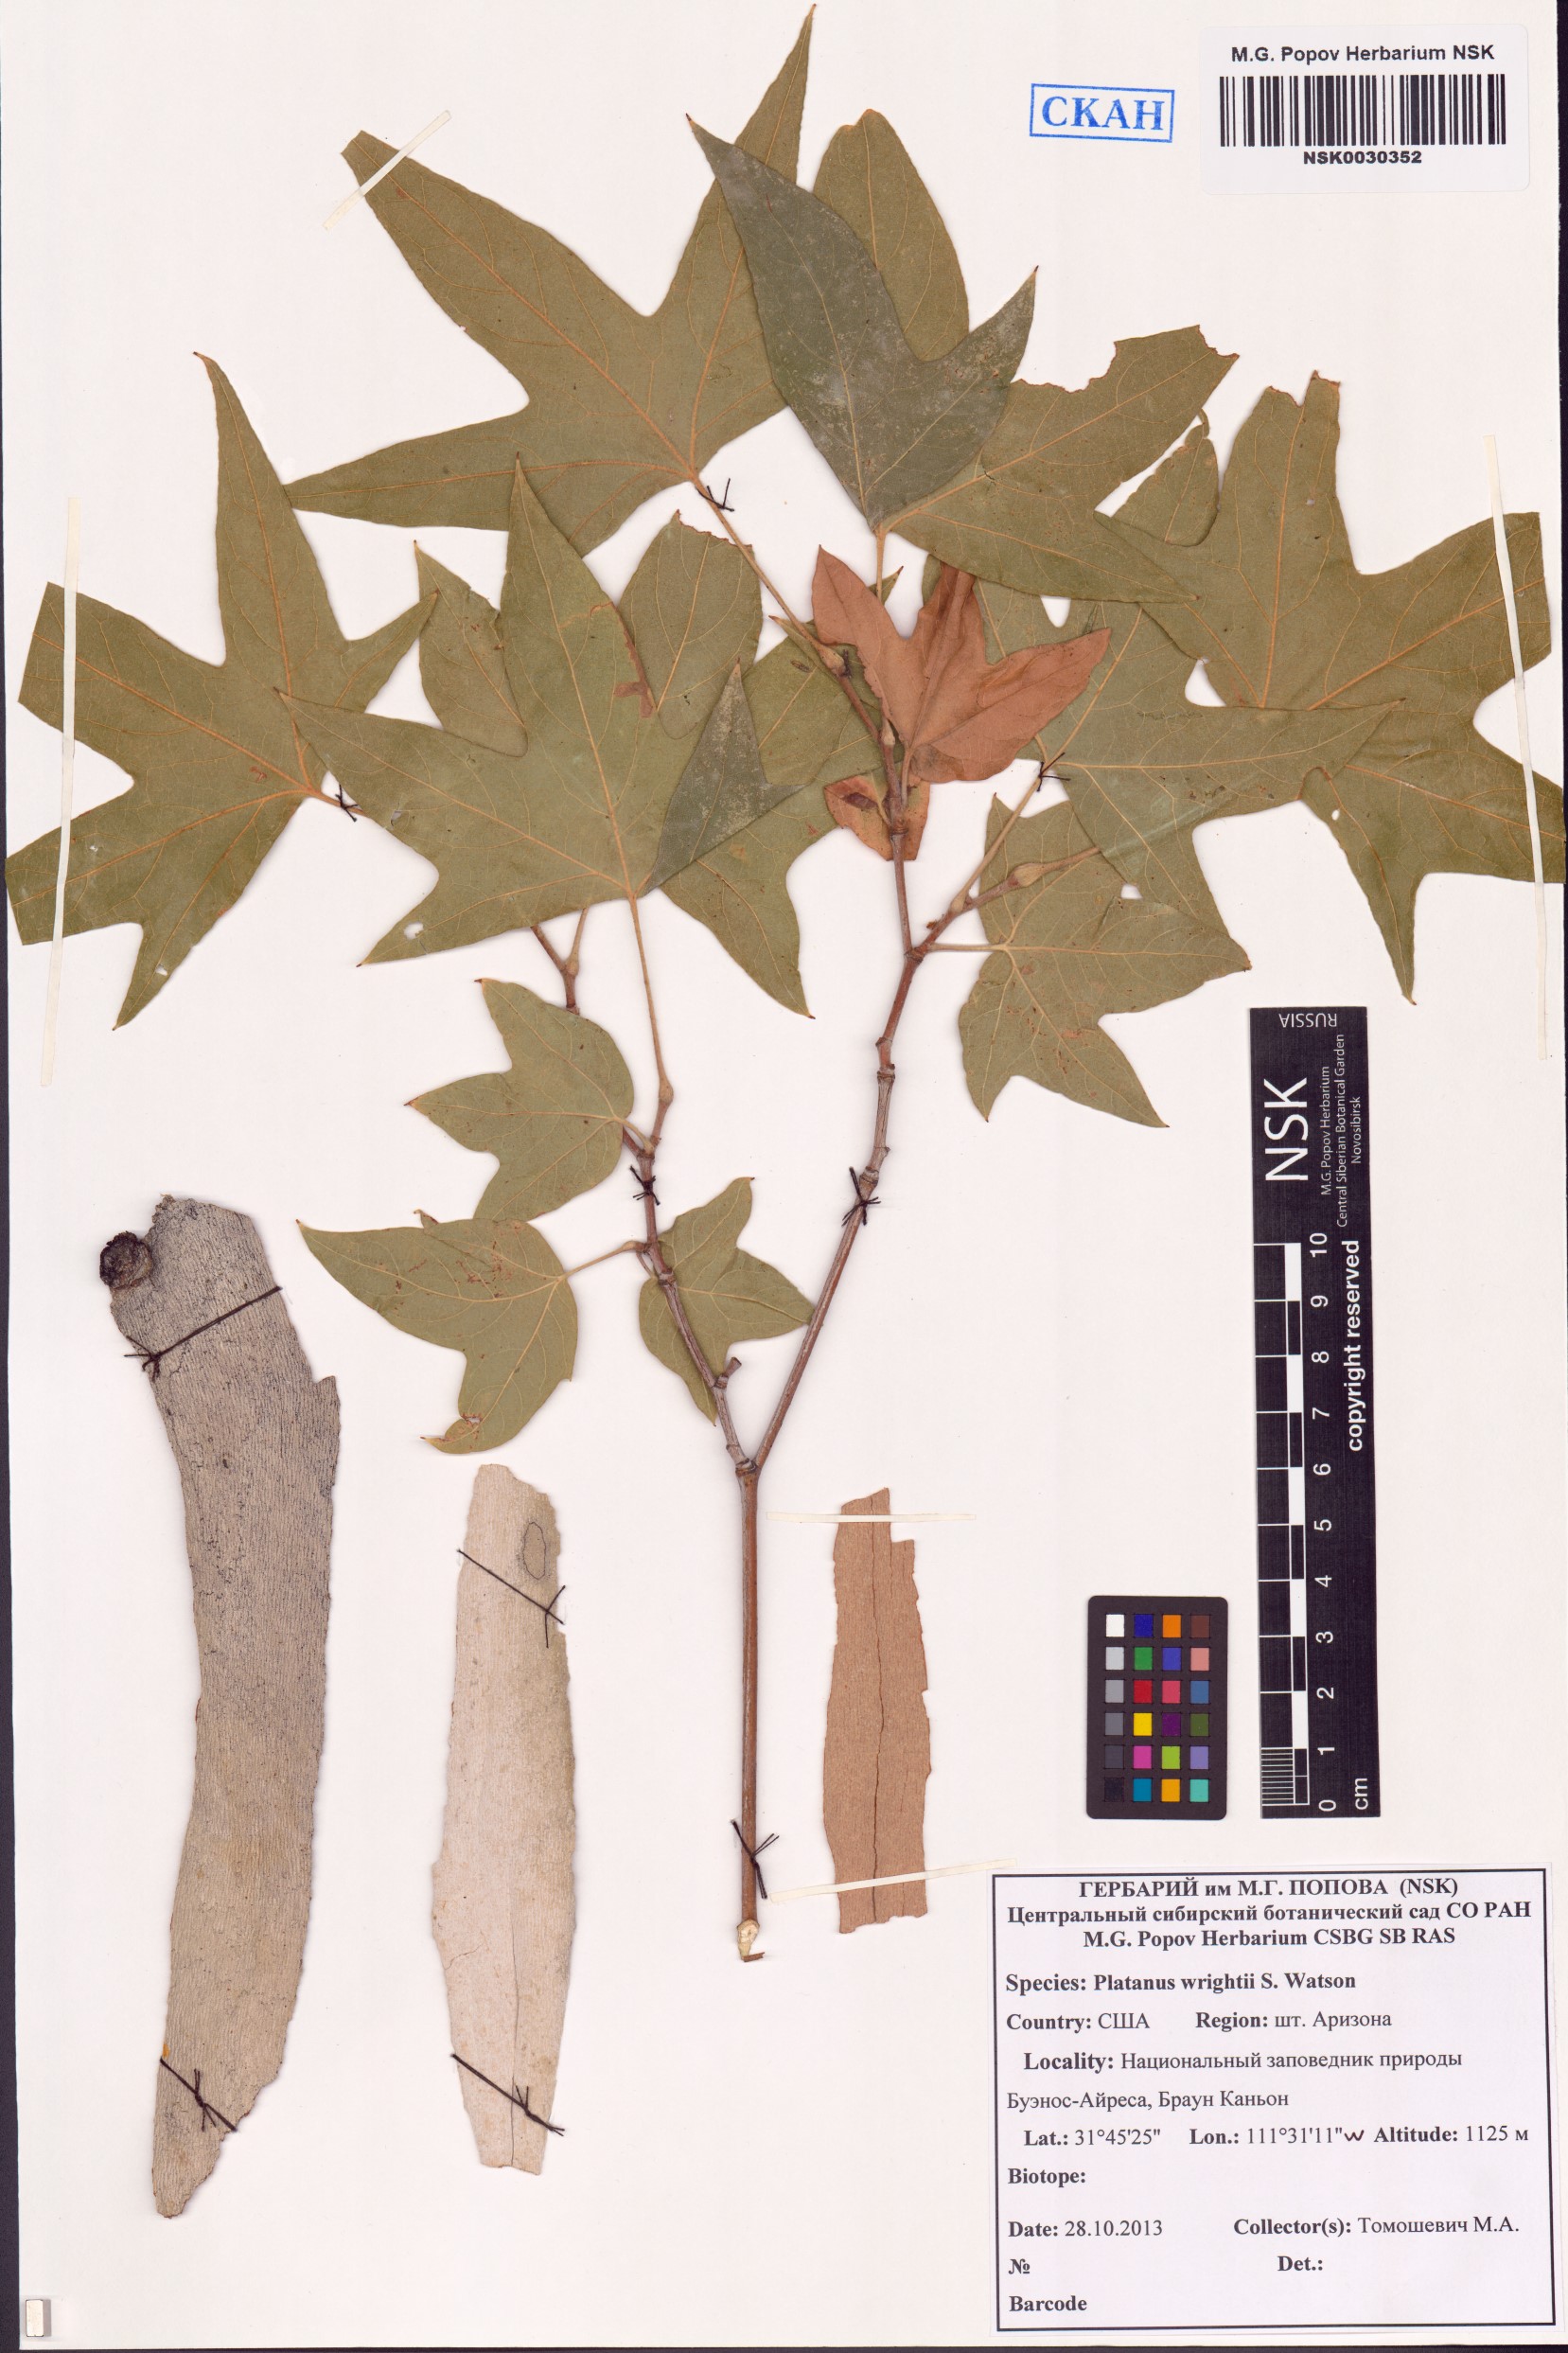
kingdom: Plantae
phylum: Tracheophyta
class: Magnoliopsida
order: Proteales
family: Platanaceae
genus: Platanus
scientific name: Platanus wrightii
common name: Arizona sycamore
